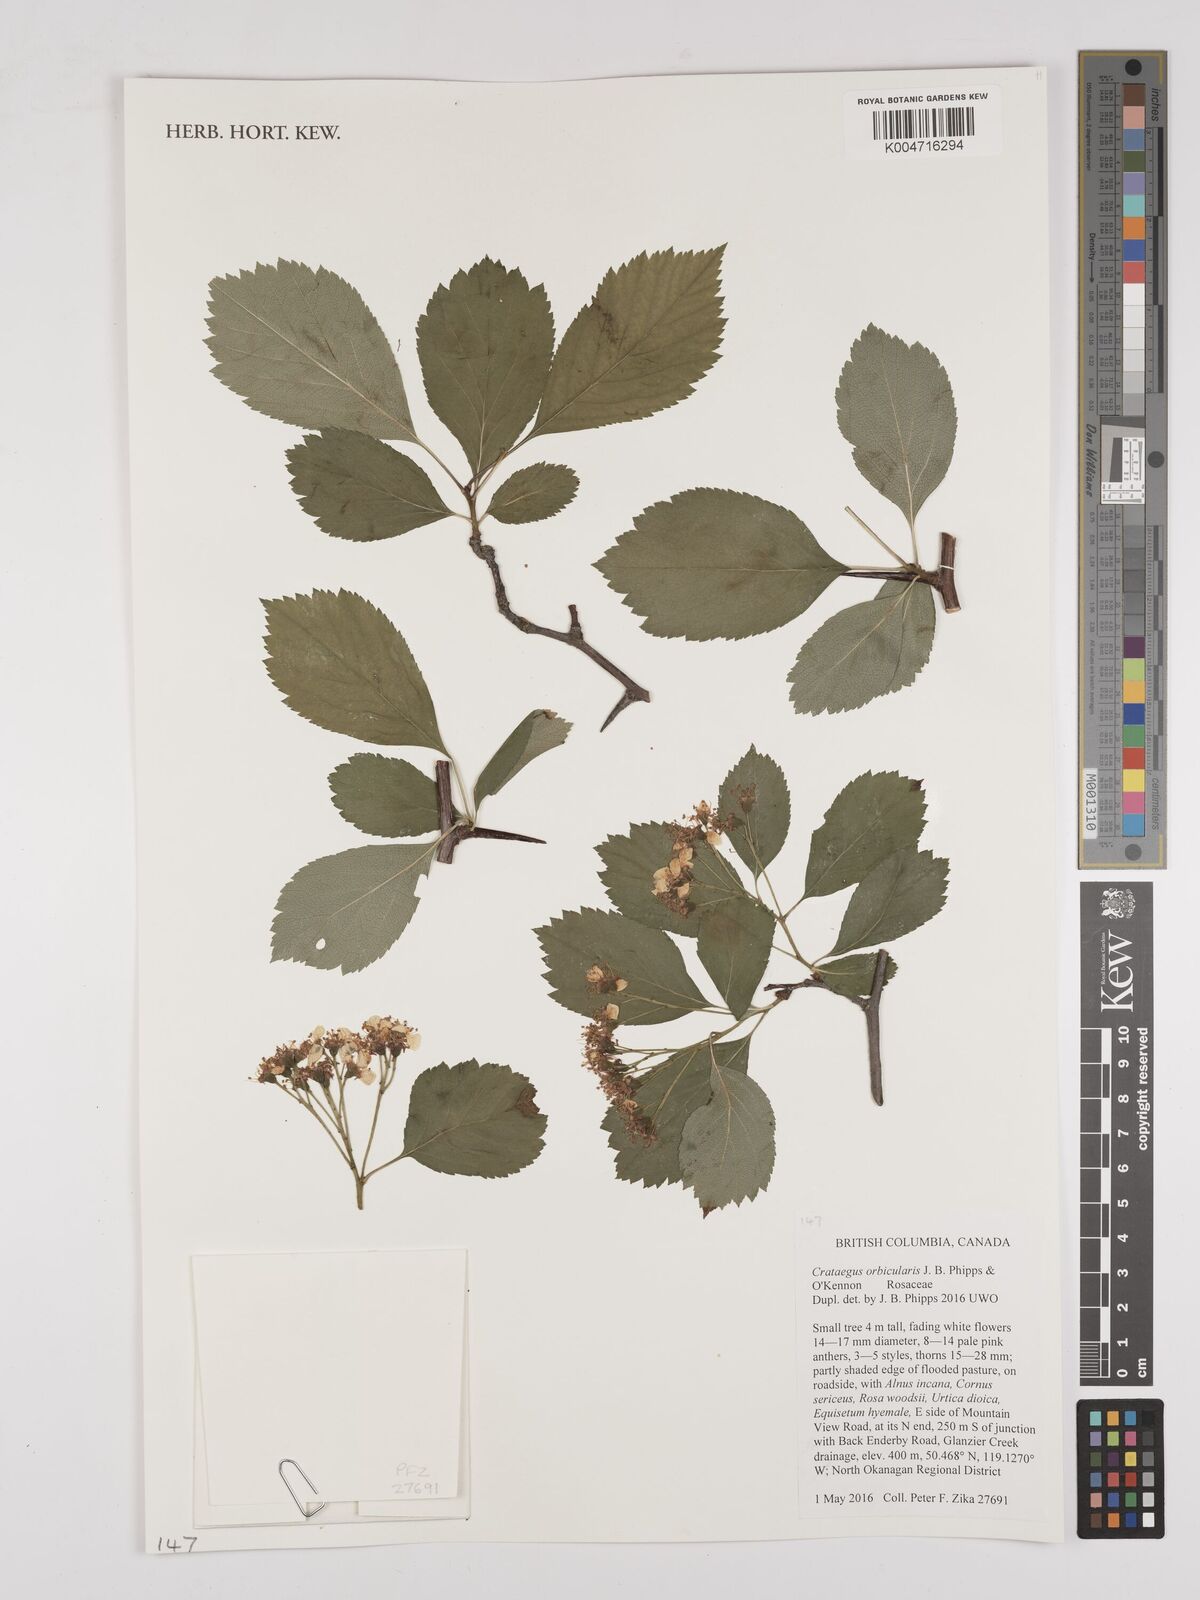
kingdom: Plantae
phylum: Tracheophyta
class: Magnoliopsida
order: Rosales
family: Rosaceae
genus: Crataegus
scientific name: Crataegus orbicularis
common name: Orbicular-leaved hawthorn
